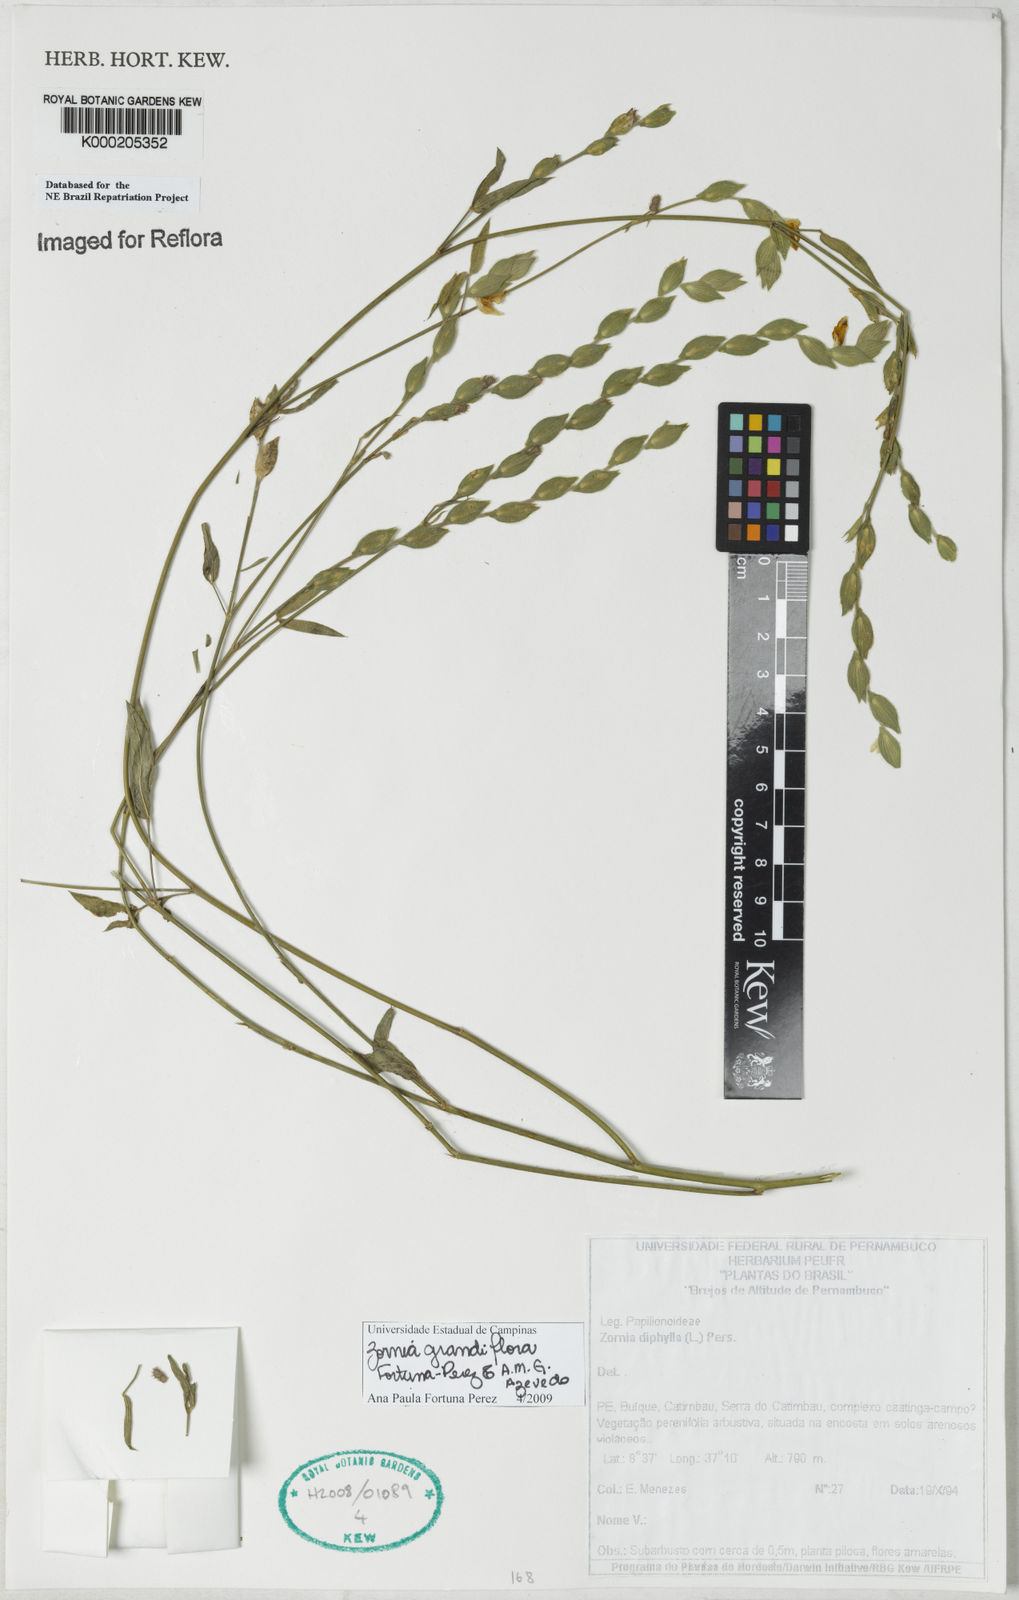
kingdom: Plantae
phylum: Tracheophyta
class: Magnoliopsida
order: Fabales
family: Fabaceae
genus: Zornia
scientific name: Zornia diphylla
